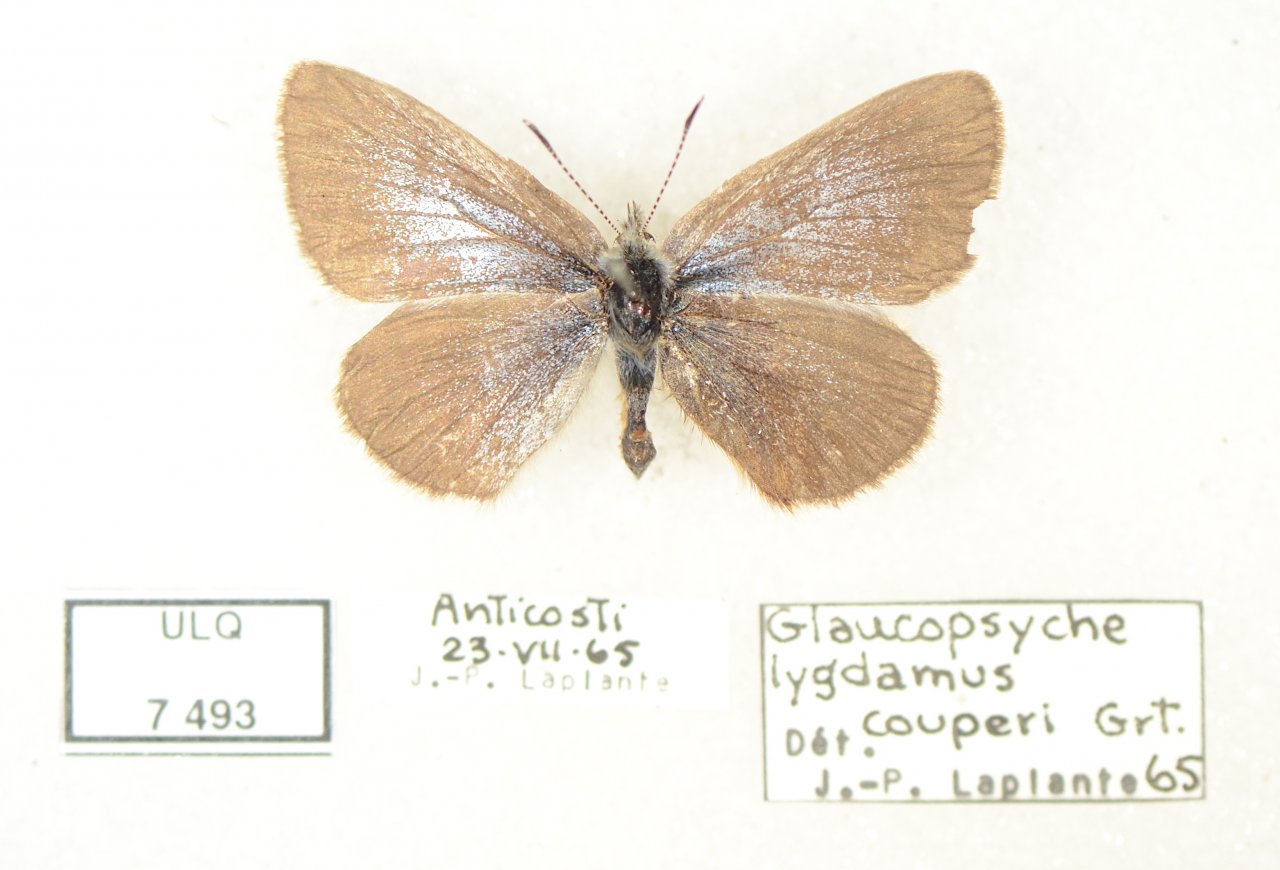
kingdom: Animalia
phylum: Arthropoda
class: Insecta
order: Lepidoptera
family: Lycaenidae
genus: Glaucopsyche
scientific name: Glaucopsyche lygdamus
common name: Silvery Blue
